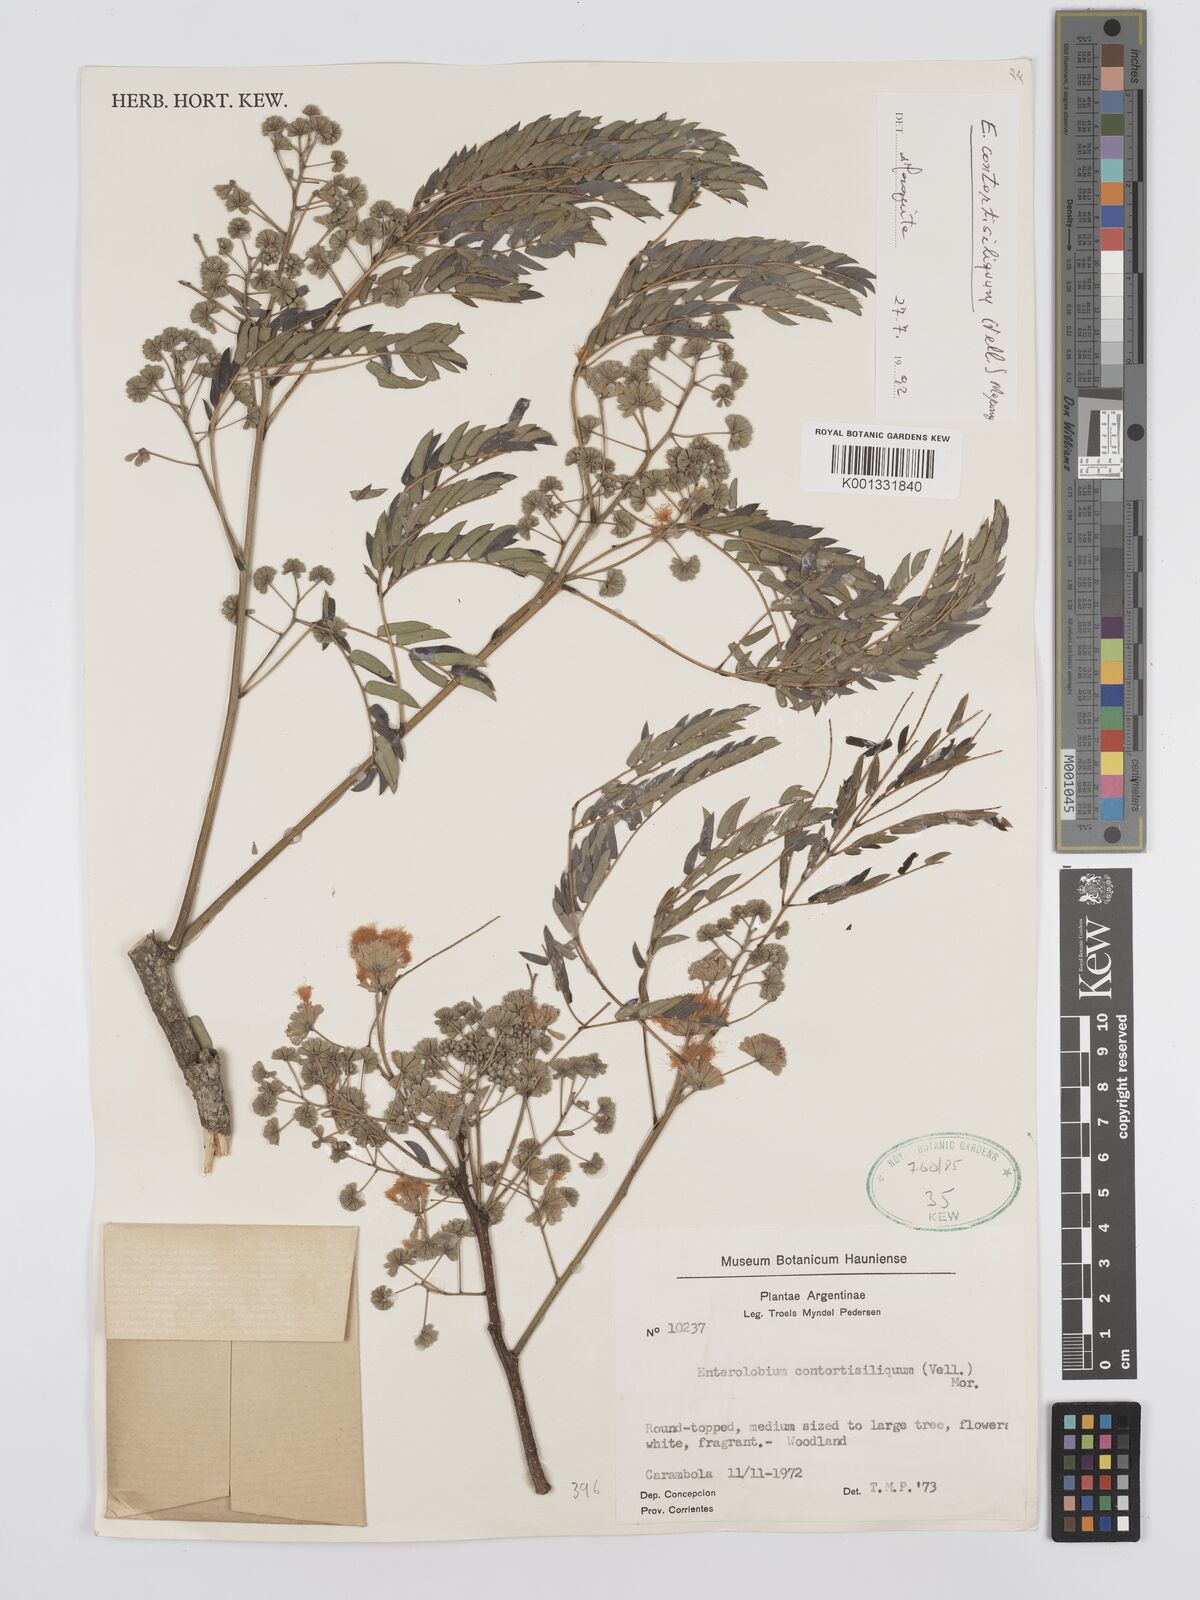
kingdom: Plantae
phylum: Tracheophyta
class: Magnoliopsida
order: Fabales
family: Fabaceae
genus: Enterolobium
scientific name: Enterolobium contortisiliquum
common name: Pacara earpod tree
